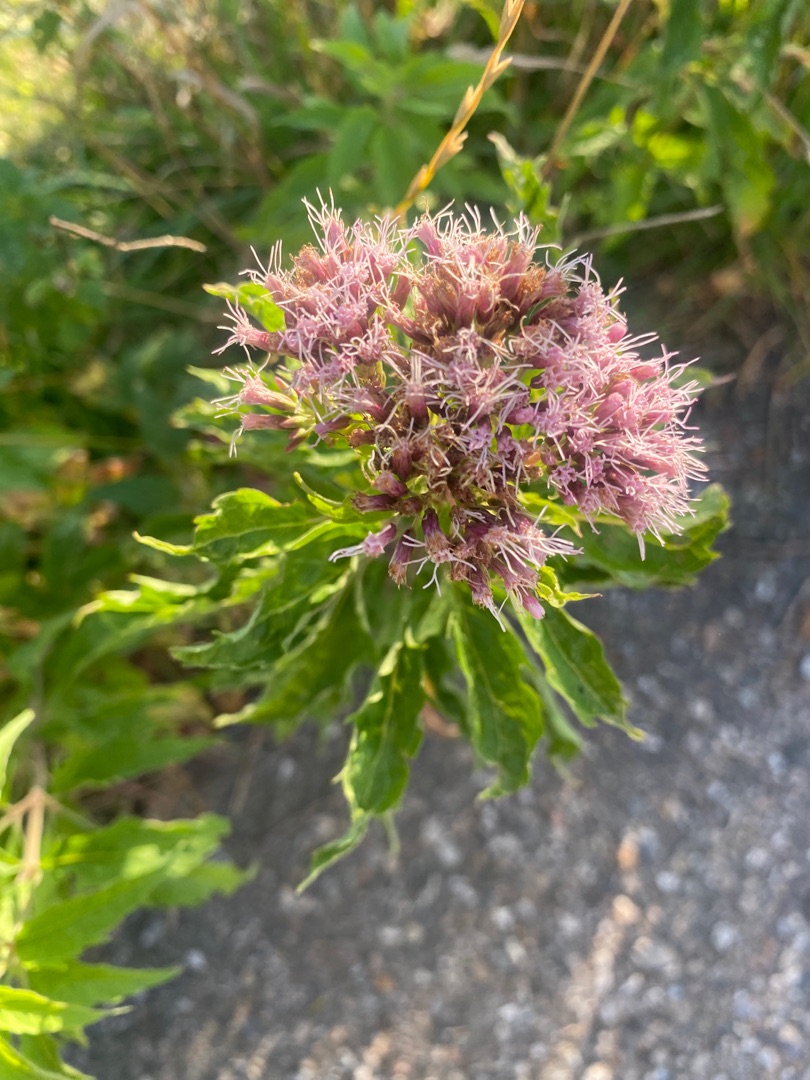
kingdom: Plantae
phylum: Tracheophyta
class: Magnoliopsida
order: Asterales
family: Asteraceae
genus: Eupatorium
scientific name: Eupatorium cannabinum
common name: Hjortetrøst
